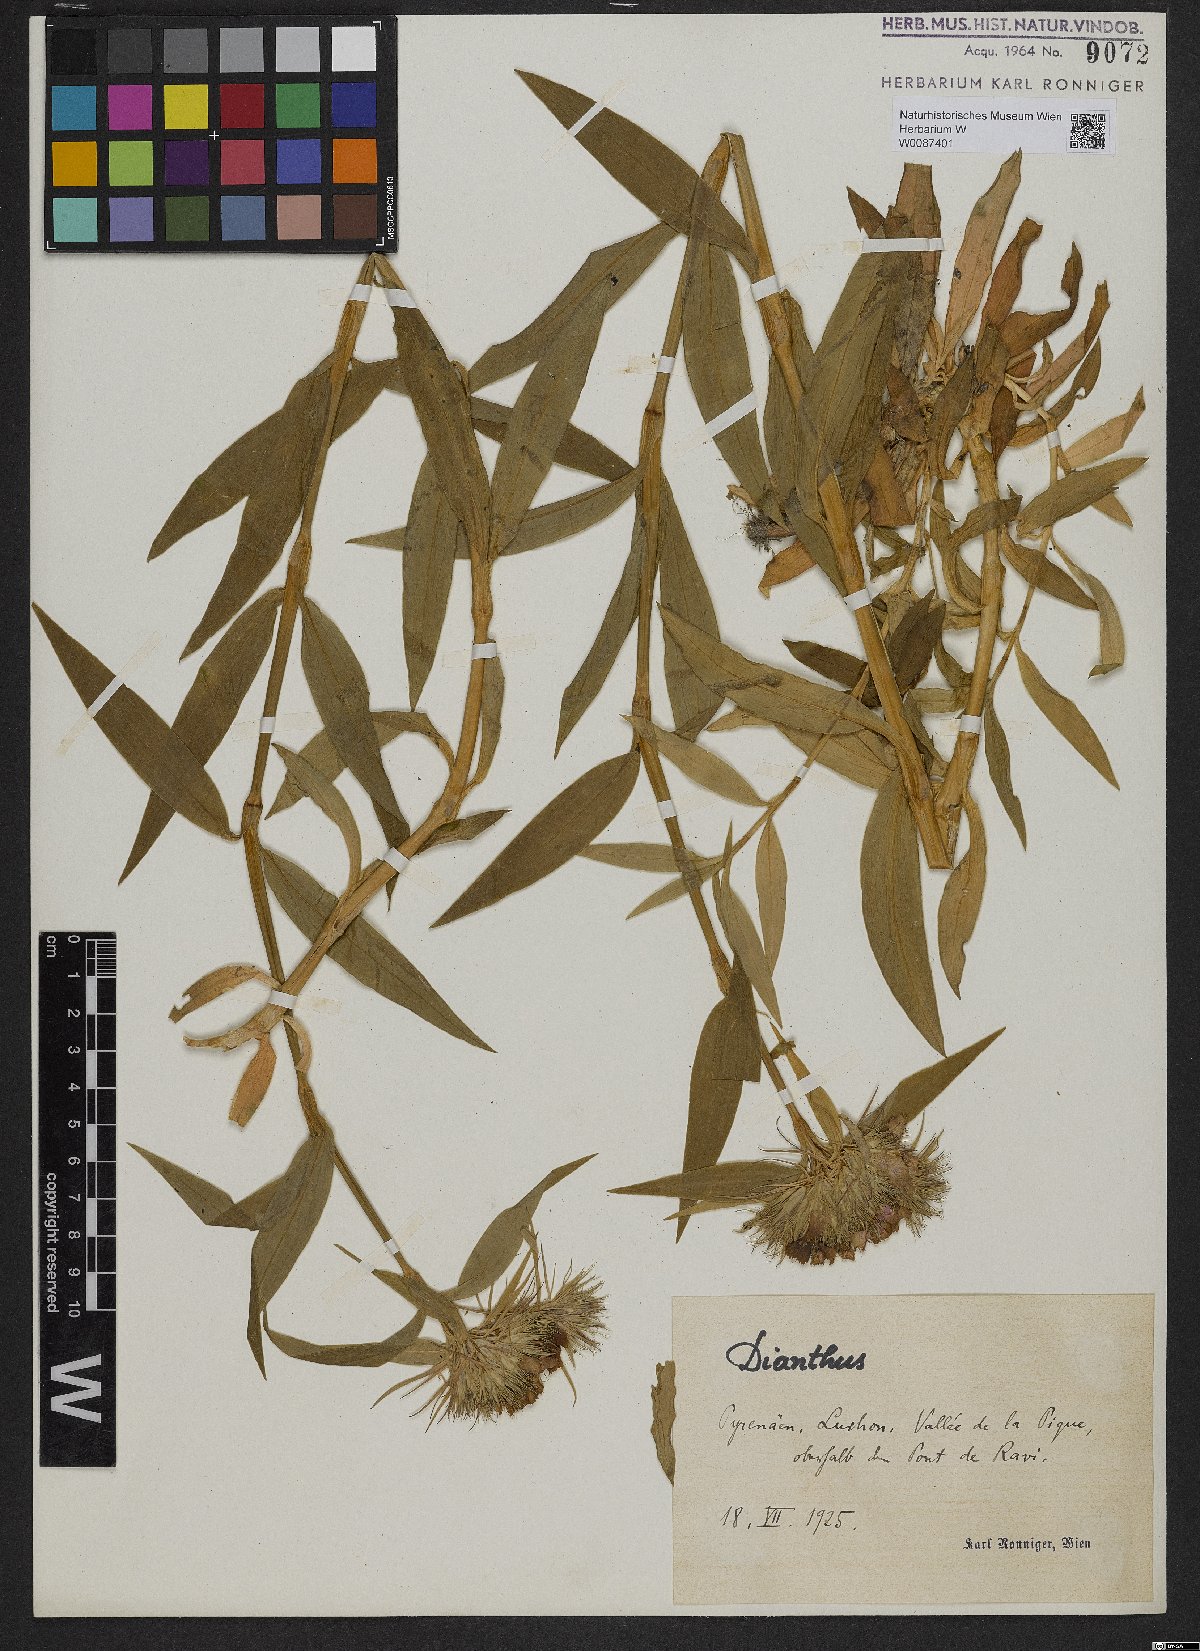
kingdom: Plantae
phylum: Tracheophyta
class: Magnoliopsida
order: Caryophyllales
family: Caryophyllaceae
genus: Dianthus
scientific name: Dianthus barbatus
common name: Sweet-william
